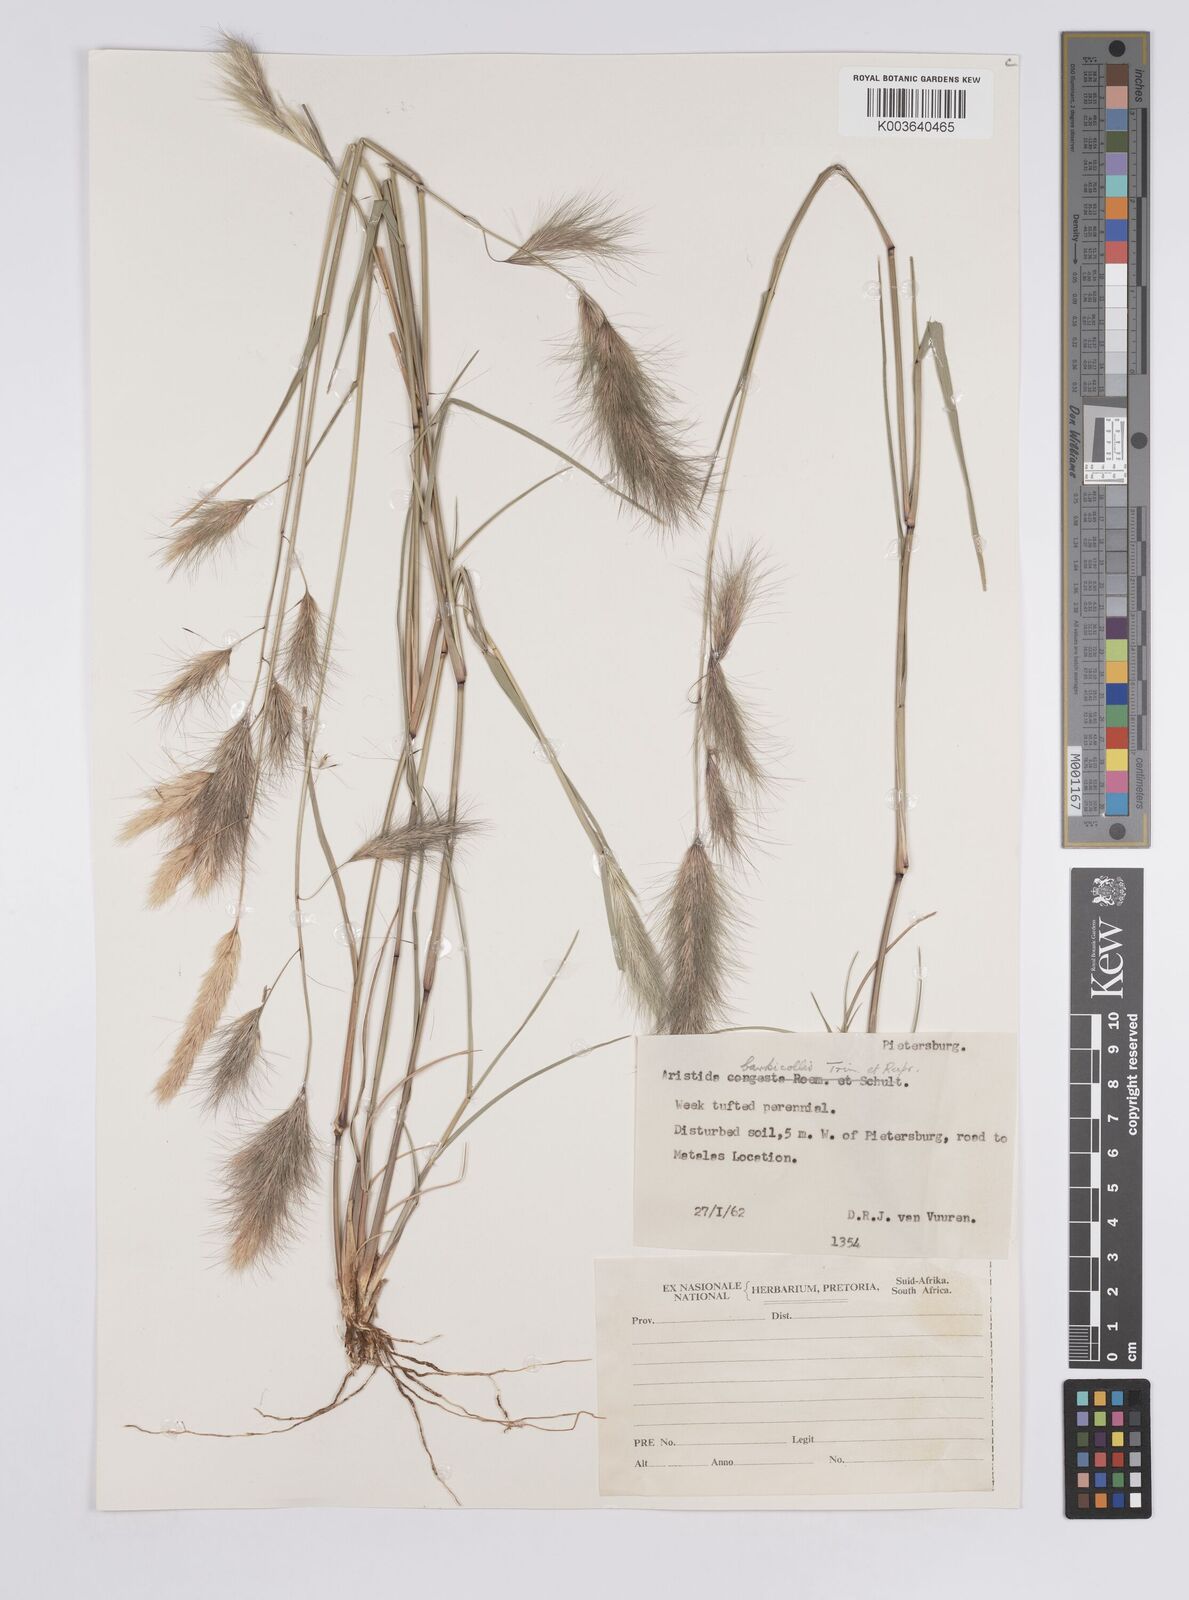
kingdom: Plantae
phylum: Tracheophyta
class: Liliopsida
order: Poales
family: Poaceae
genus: Aristida
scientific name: Aristida barbicollis
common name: Spreading prickle grass
